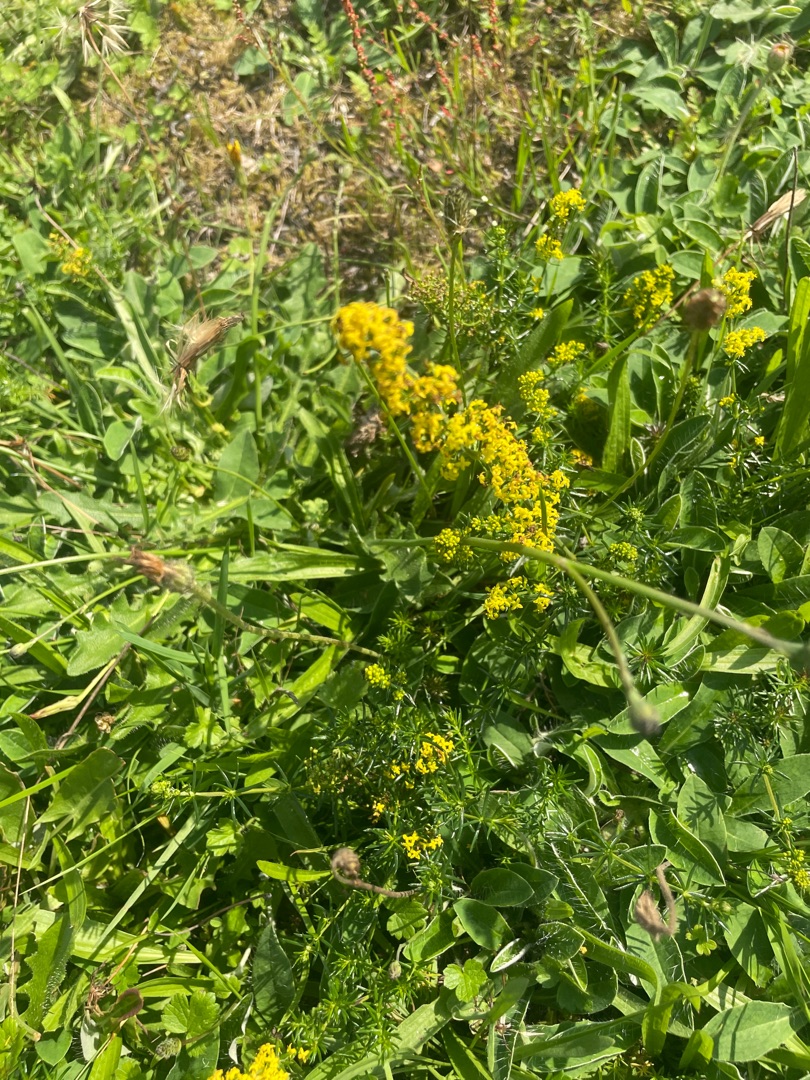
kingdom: Plantae
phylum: Tracheophyta
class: Magnoliopsida
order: Gentianales
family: Rubiaceae
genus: Galium
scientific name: Galium verum
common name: Gul snerre
